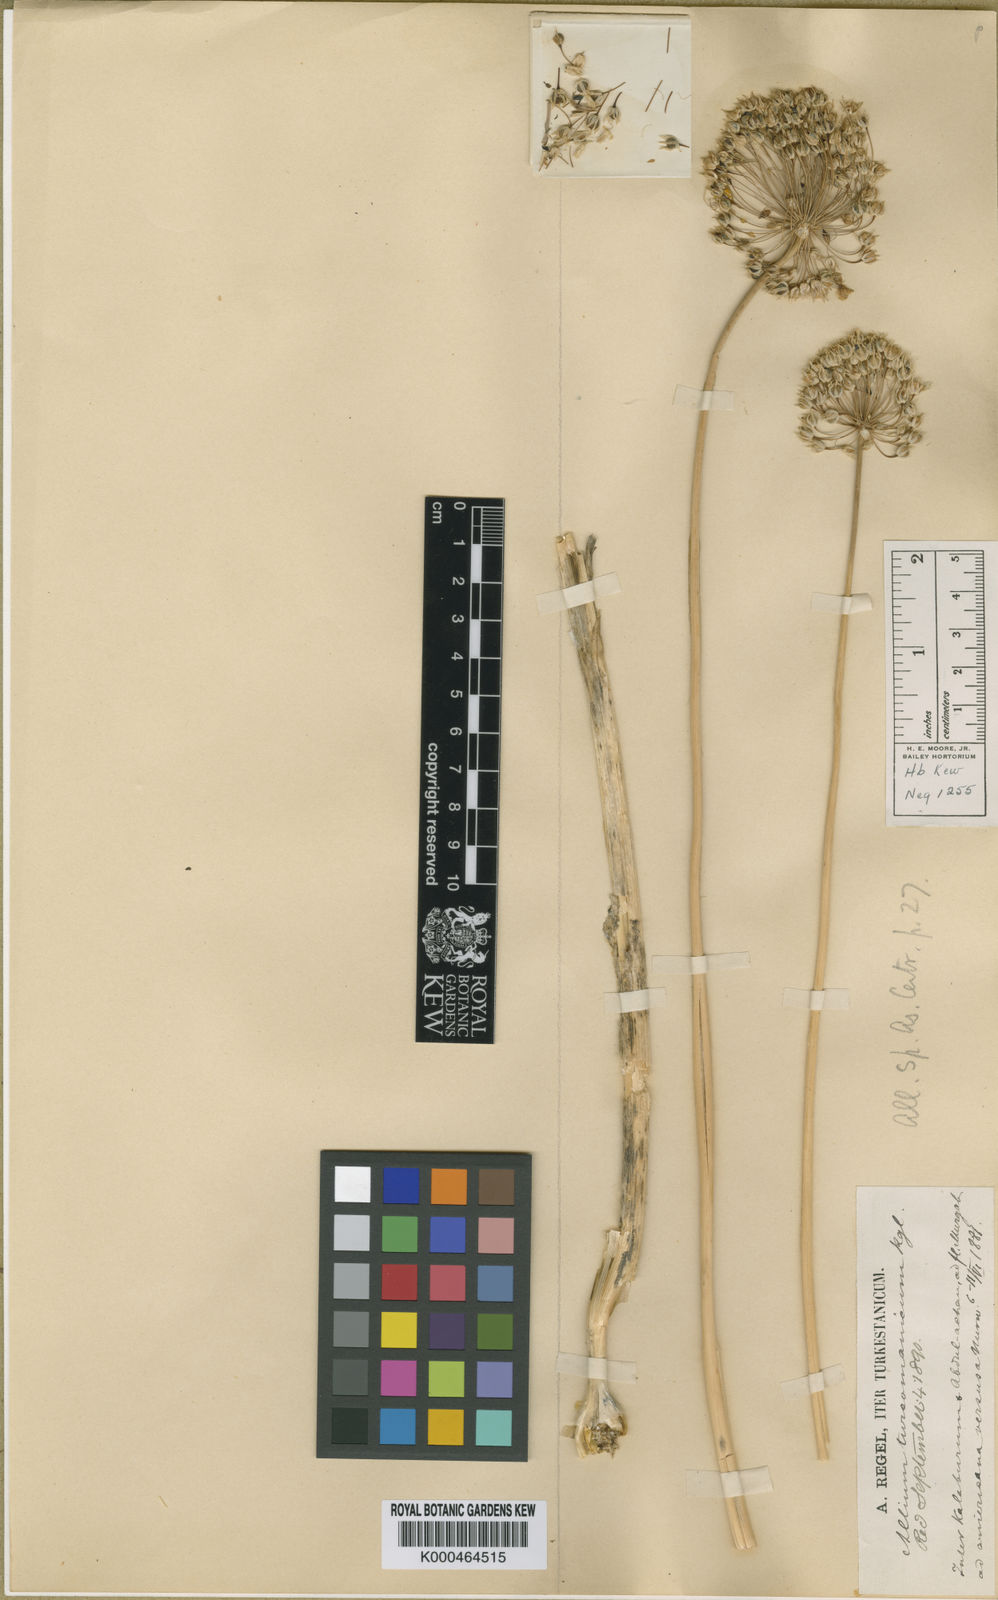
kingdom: Plantae
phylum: Tracheophyta
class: Liliopsida
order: Asparagales
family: Amaryllidaceae
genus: Allium
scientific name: Allium turcomanicum
